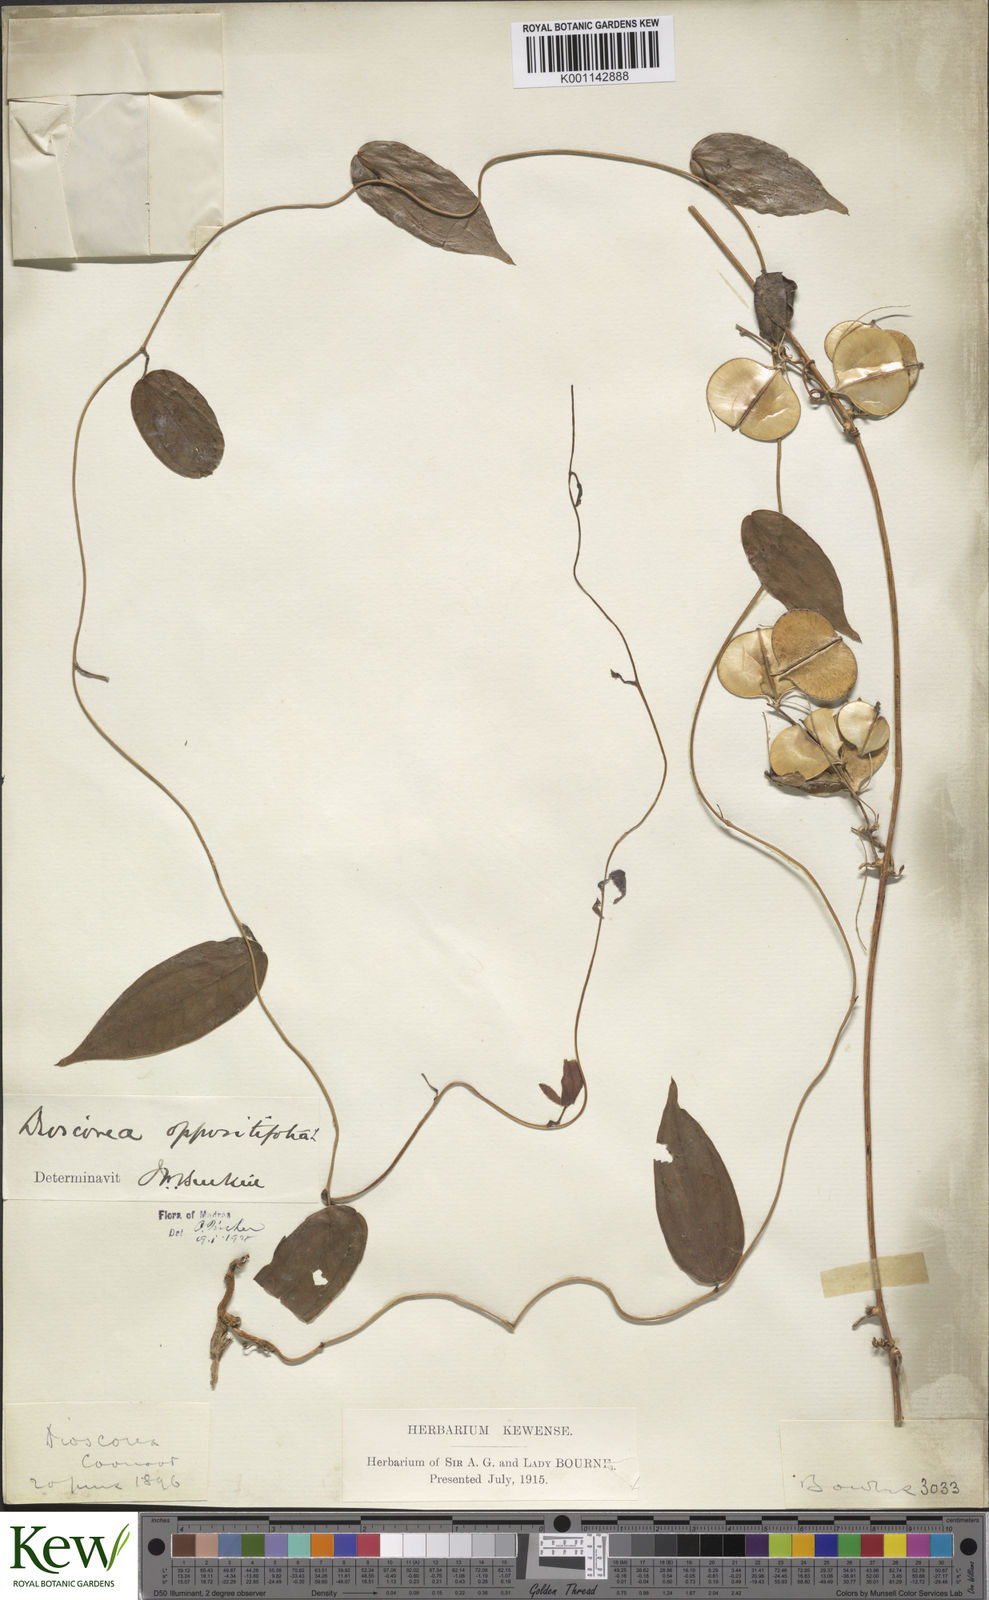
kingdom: Plantae
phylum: Tracheophyta
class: Liliopsida
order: Dioscoreales
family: Dioscoreaceae
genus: Dioscorea
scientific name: Dioscorea oppositifolia
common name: Chinese yam
